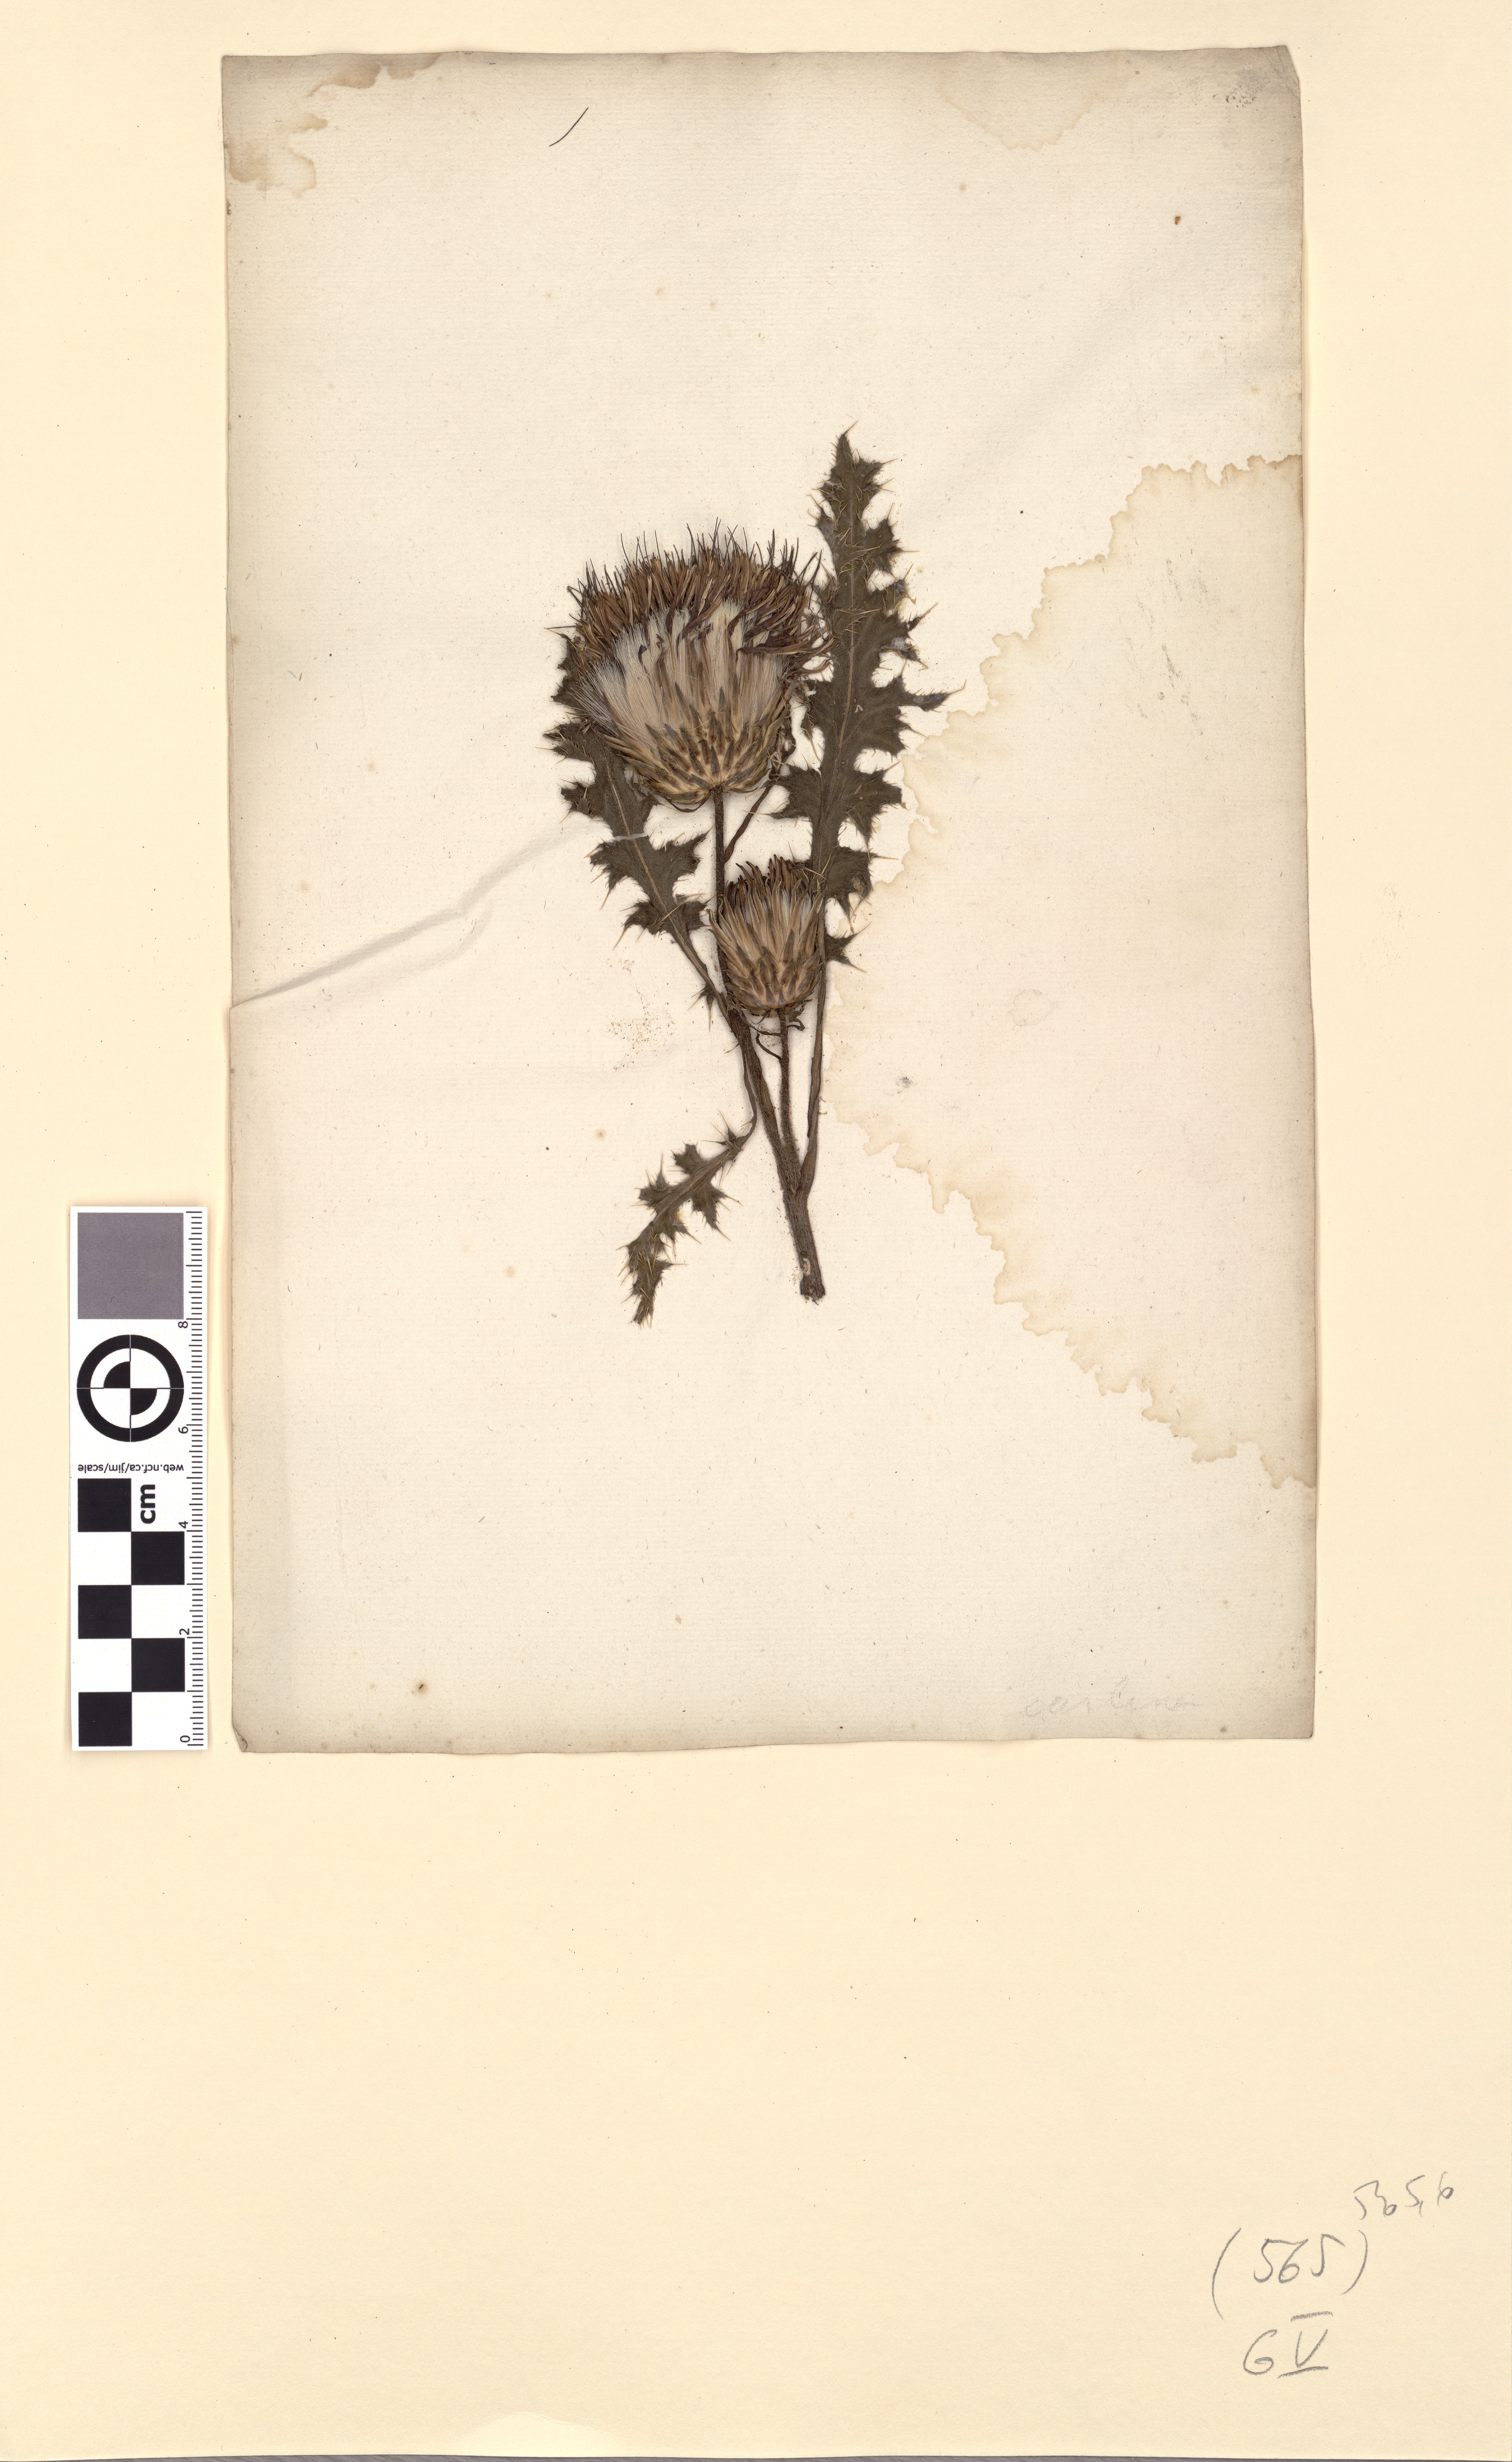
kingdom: Plantae
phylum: Tracheophyta
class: Magnoliopsida
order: Asterales
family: Asteraceae
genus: Carduus
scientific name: Carduus nutans
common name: Musk thistle
